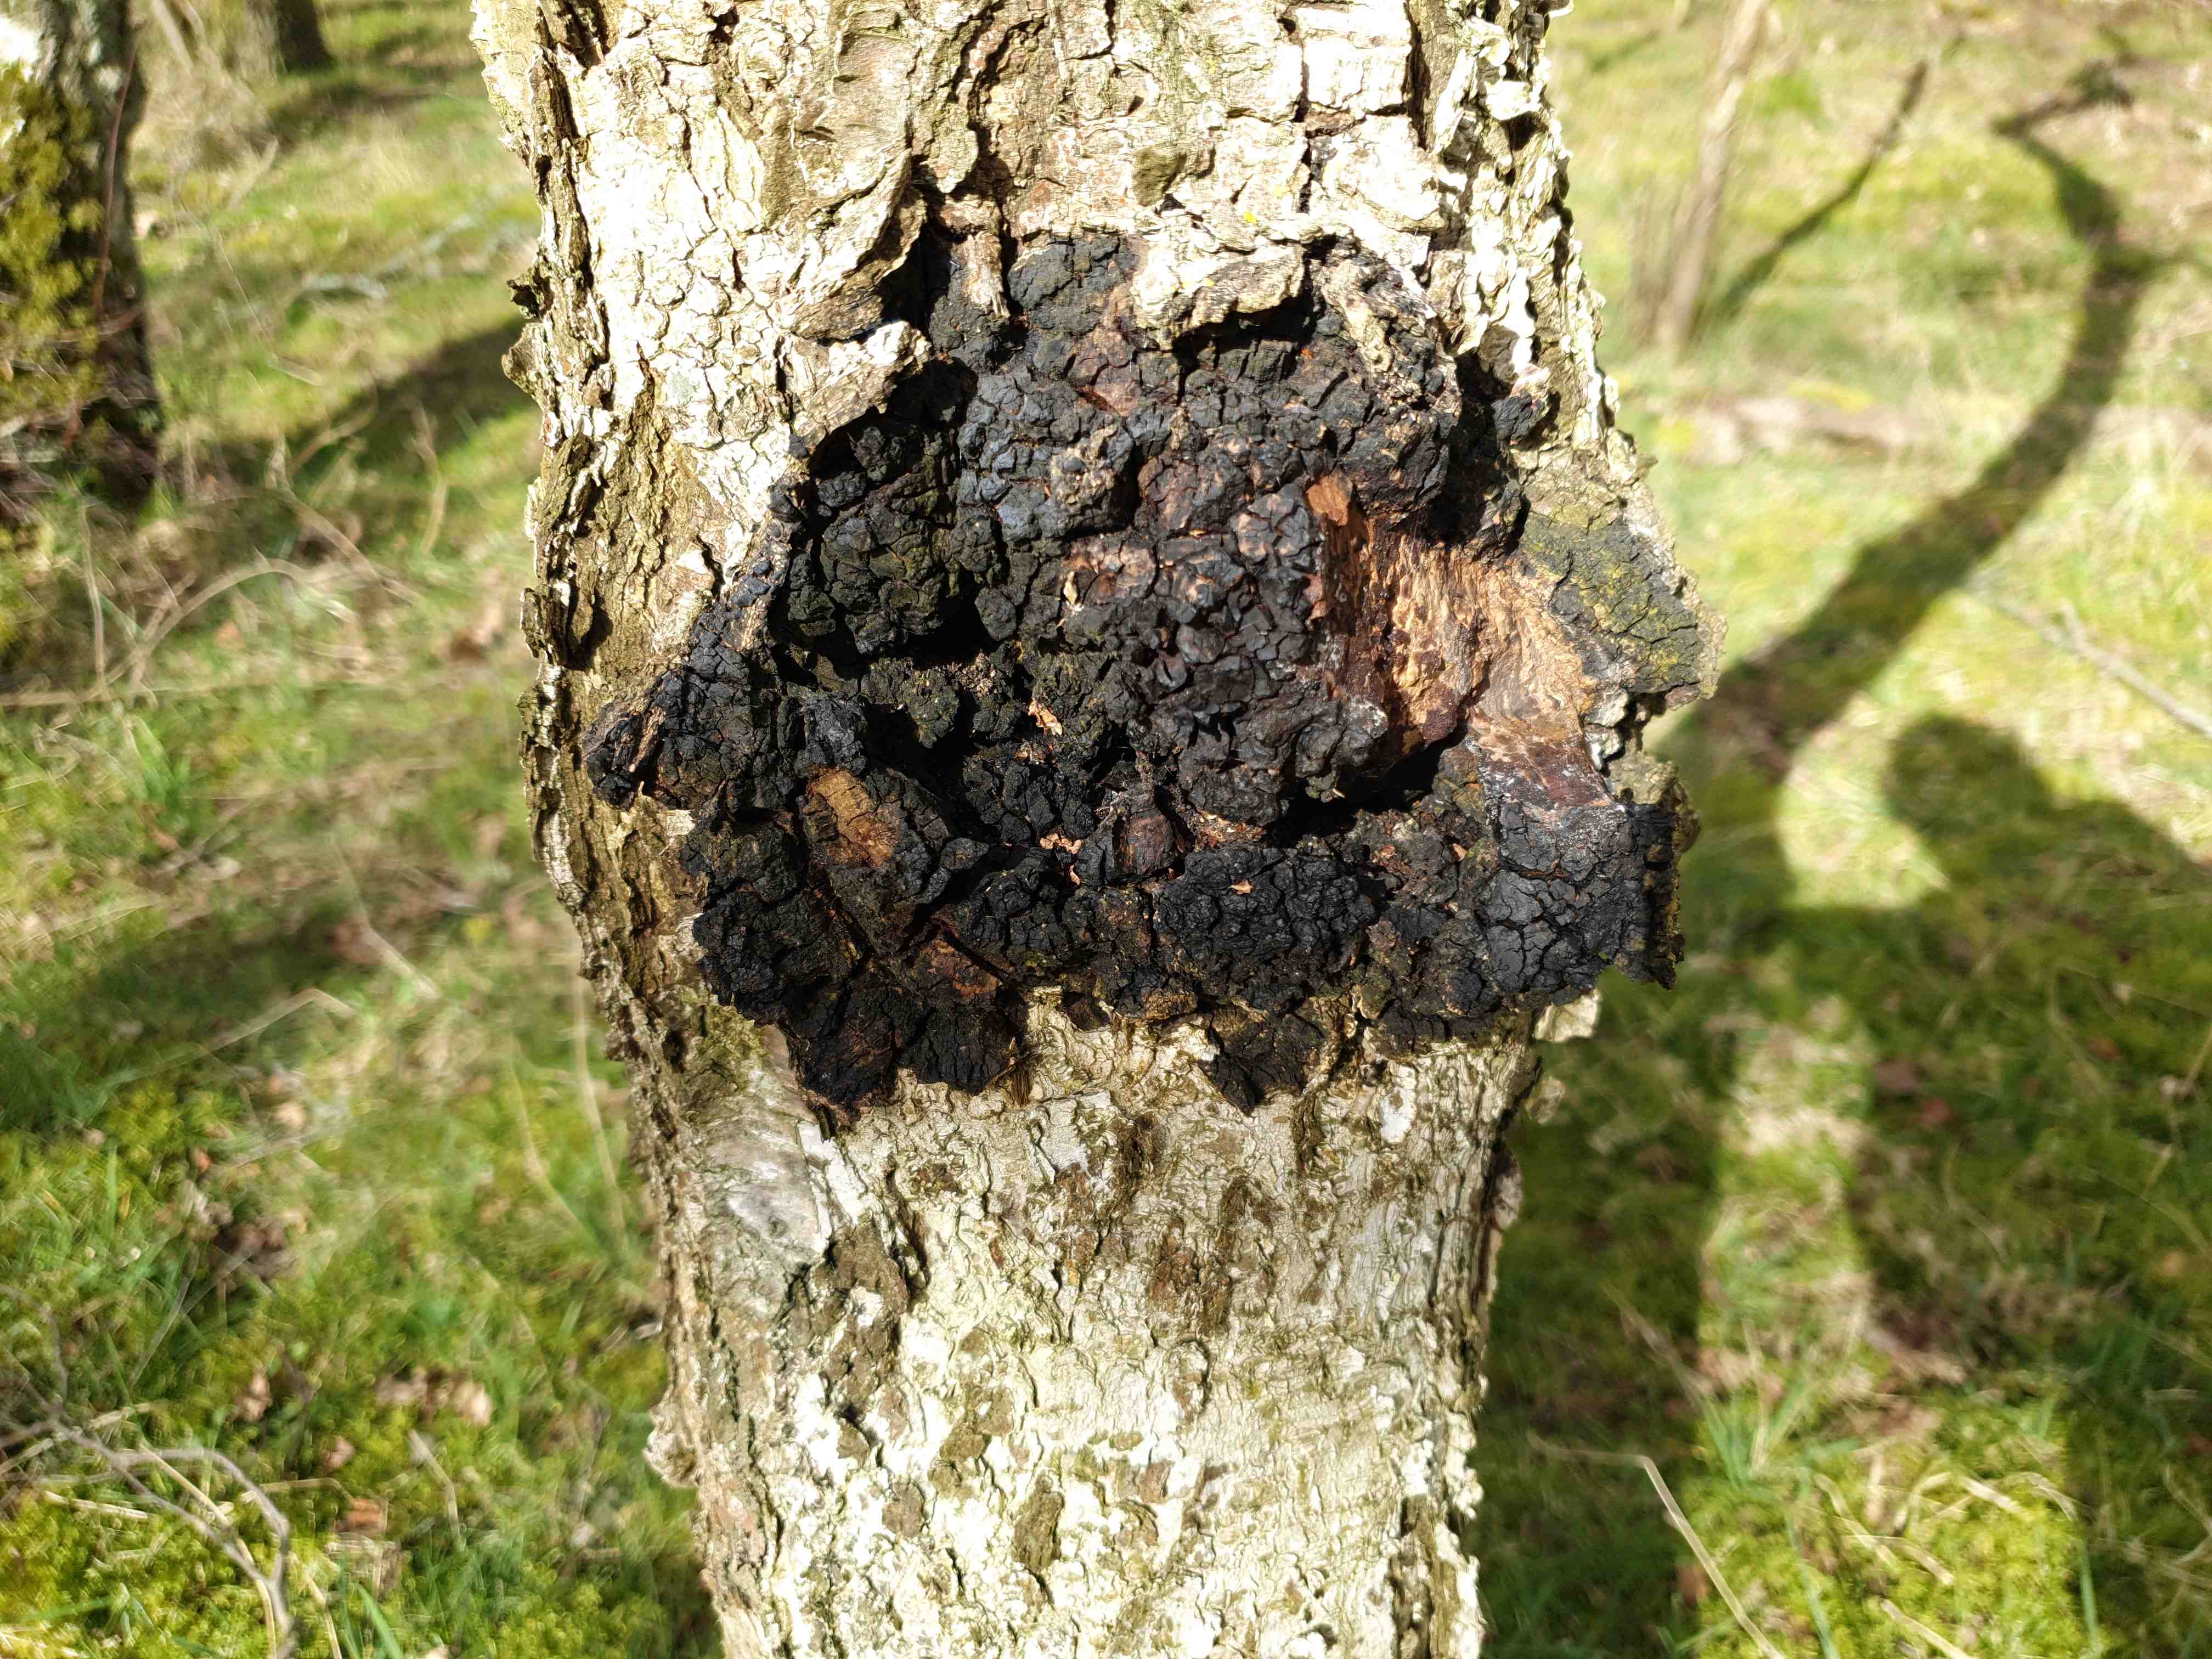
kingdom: Fungi
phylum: Basidiomycota
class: Agaricomycetes
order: Hymenochaetales
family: Hymenochaetaceae
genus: Inonotus
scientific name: Inonotus obliquus
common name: birke-spejlporesvamp
